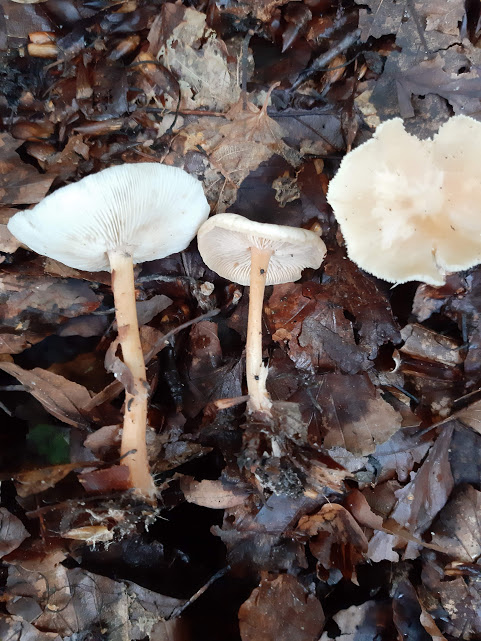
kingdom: Fungi
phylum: Basidiomycota
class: Agaricomycetes
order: Agaricales
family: Omphalotaceae
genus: Gymnopus
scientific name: Gymnopus dryophilus
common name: løv-fladhat
